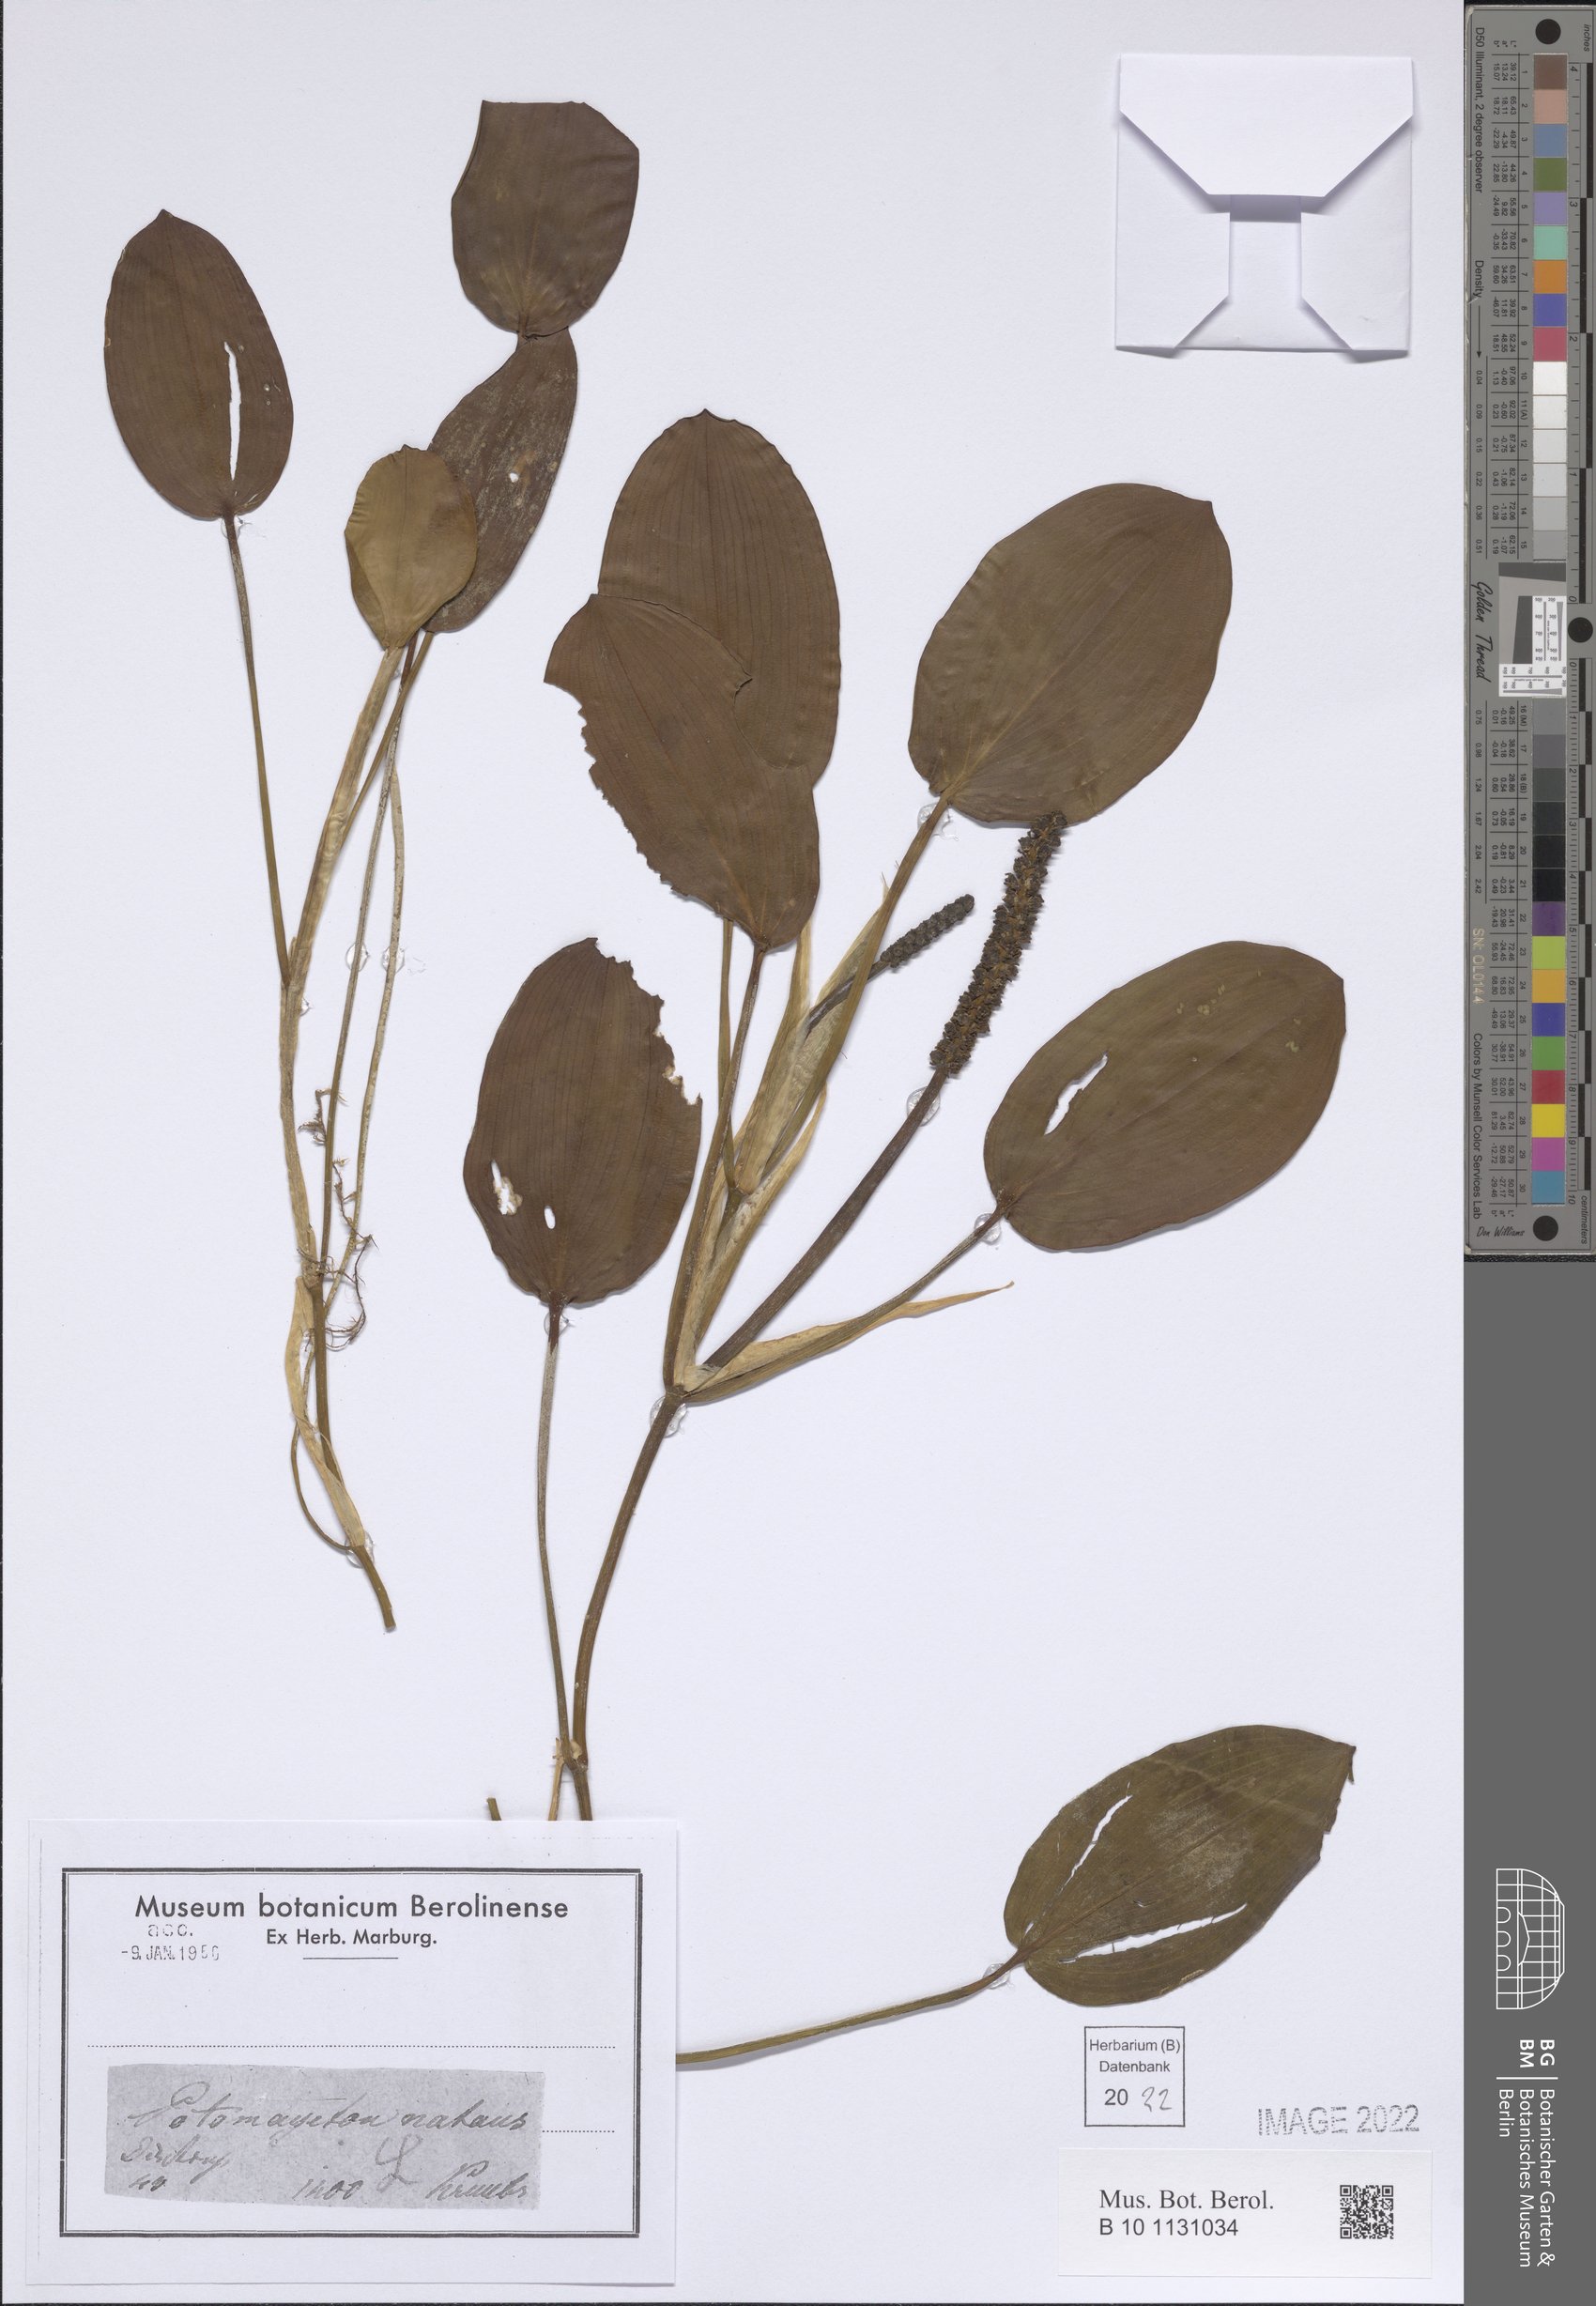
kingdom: Plantae
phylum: Tracheophyta
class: Liliopsida
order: Alismatales
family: Potamogetonaceae
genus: Potamogeton
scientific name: Potamogeton natans
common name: Broad-leaved pondweed
